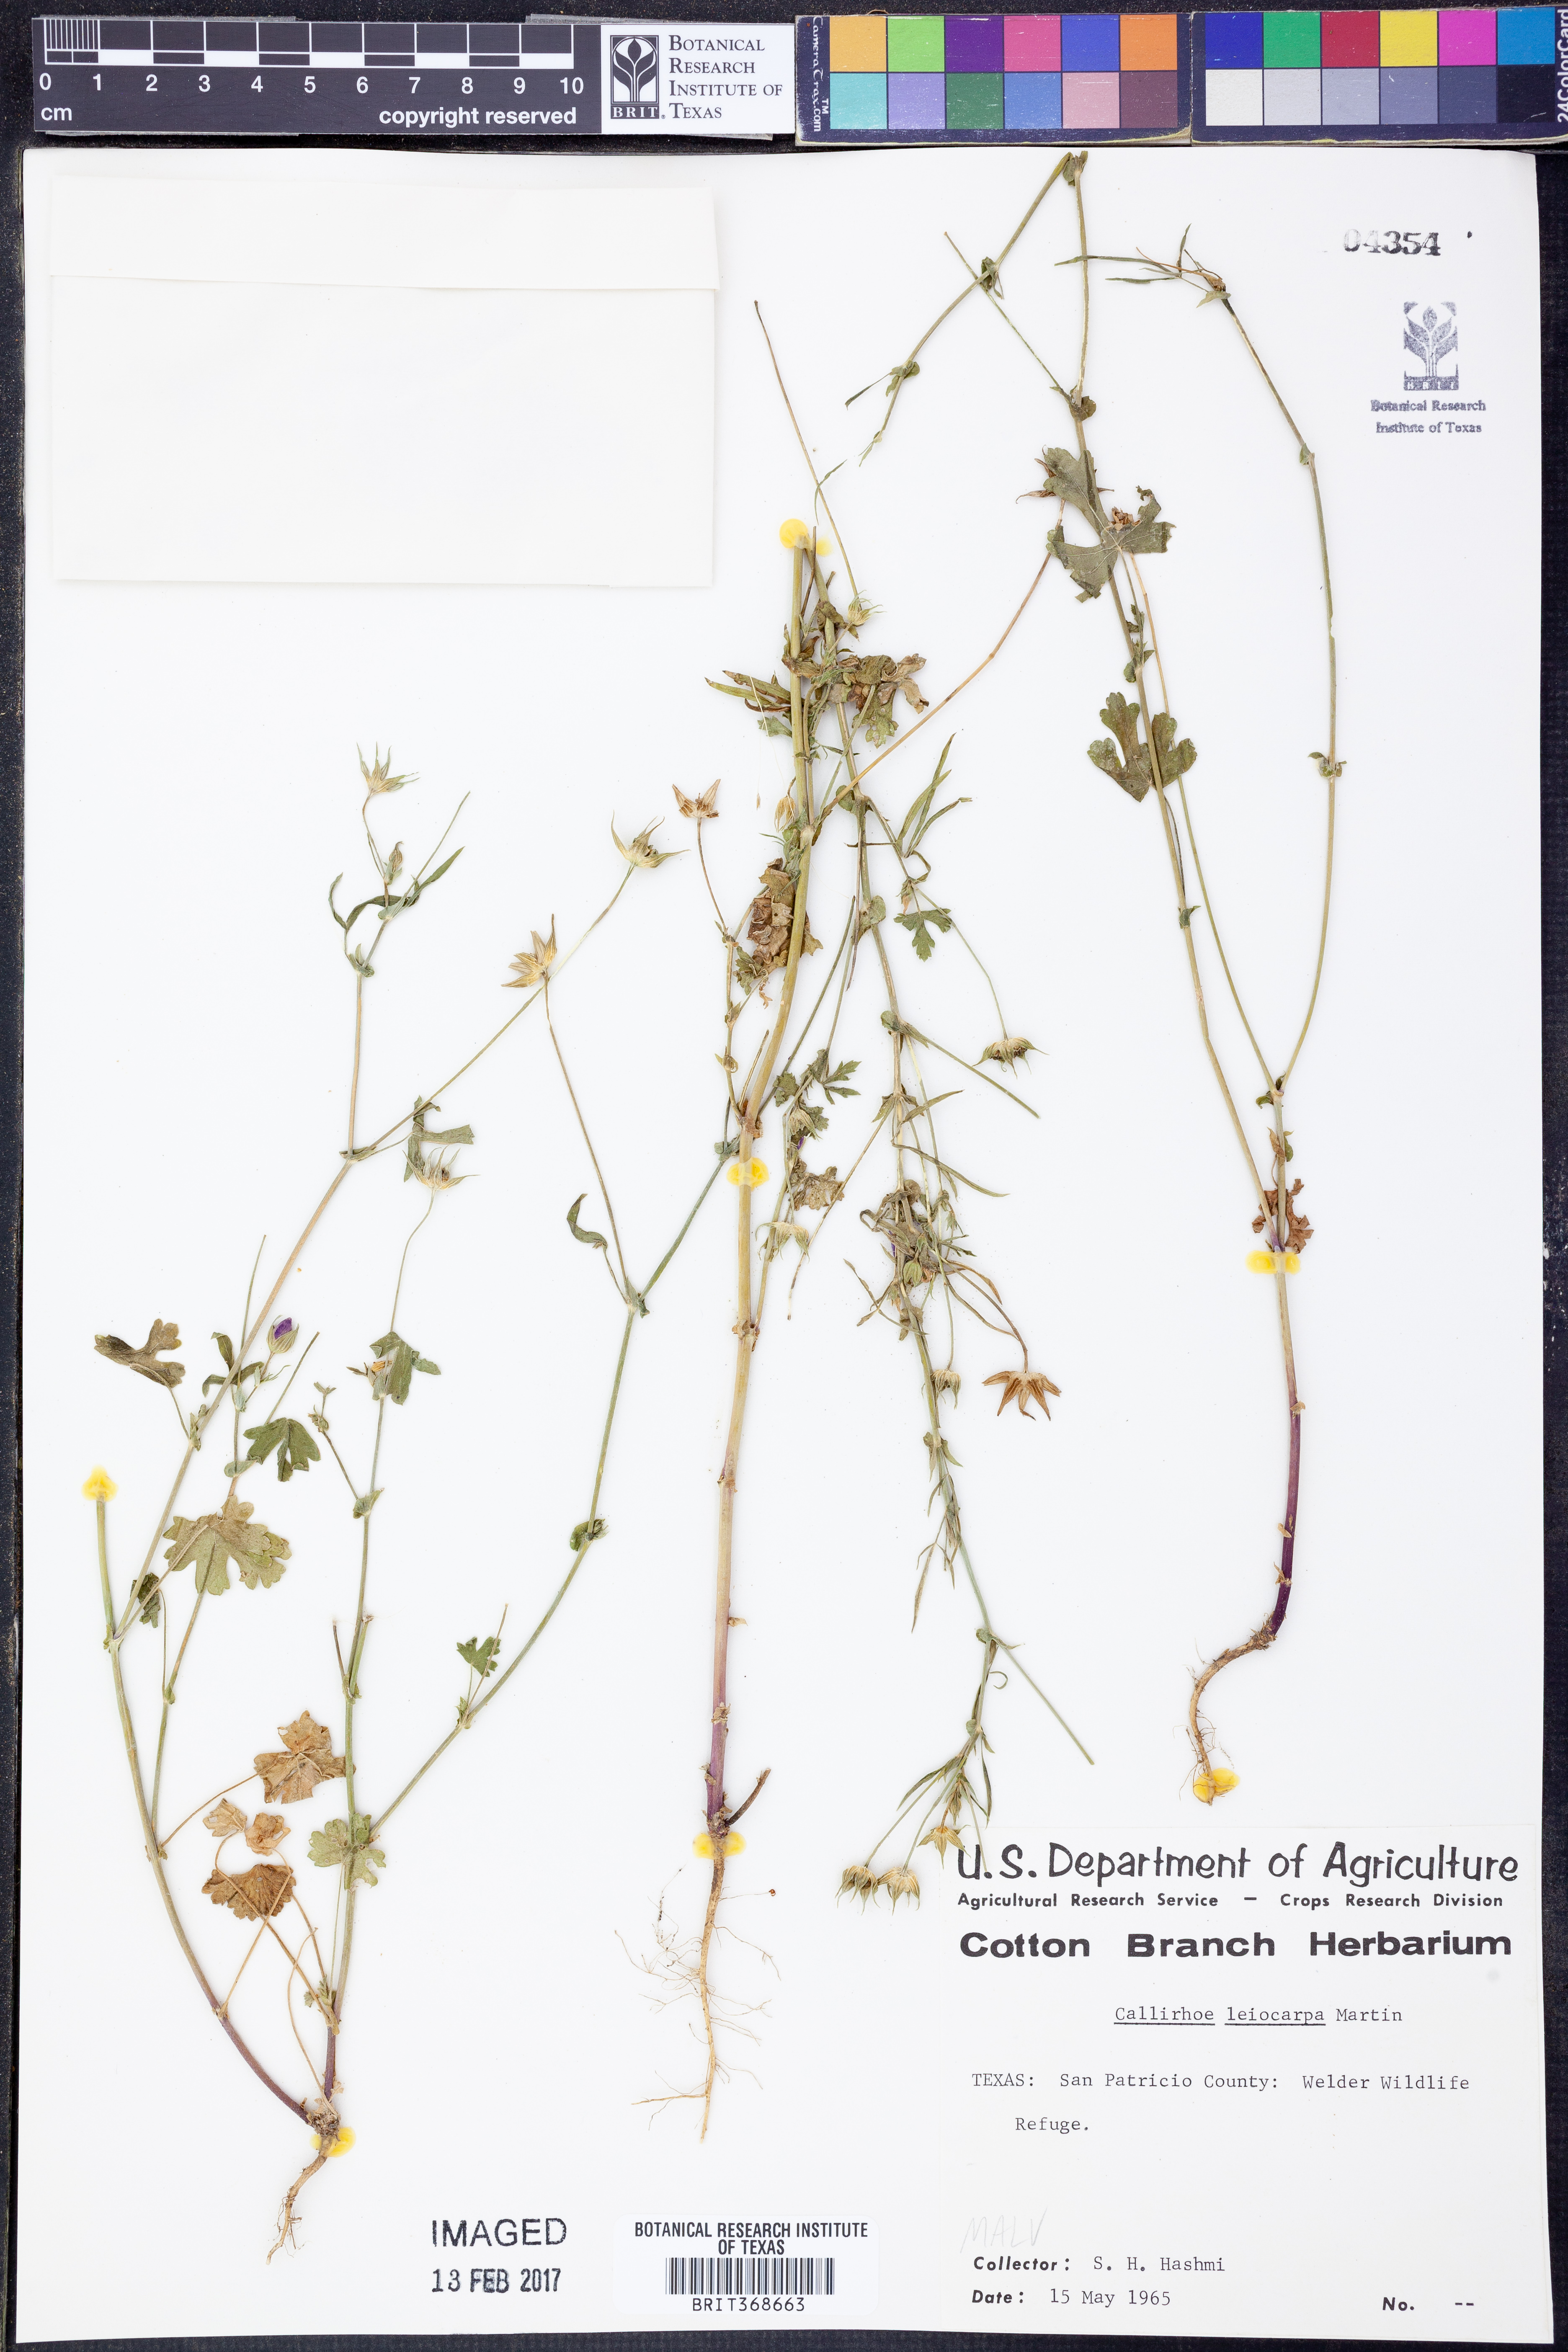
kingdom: Plantae
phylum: Tracheophyta
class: Magnoliopsida
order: Malvales
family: Malvaceae
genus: Callirhoe
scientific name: Callirhoe leiocarpa
